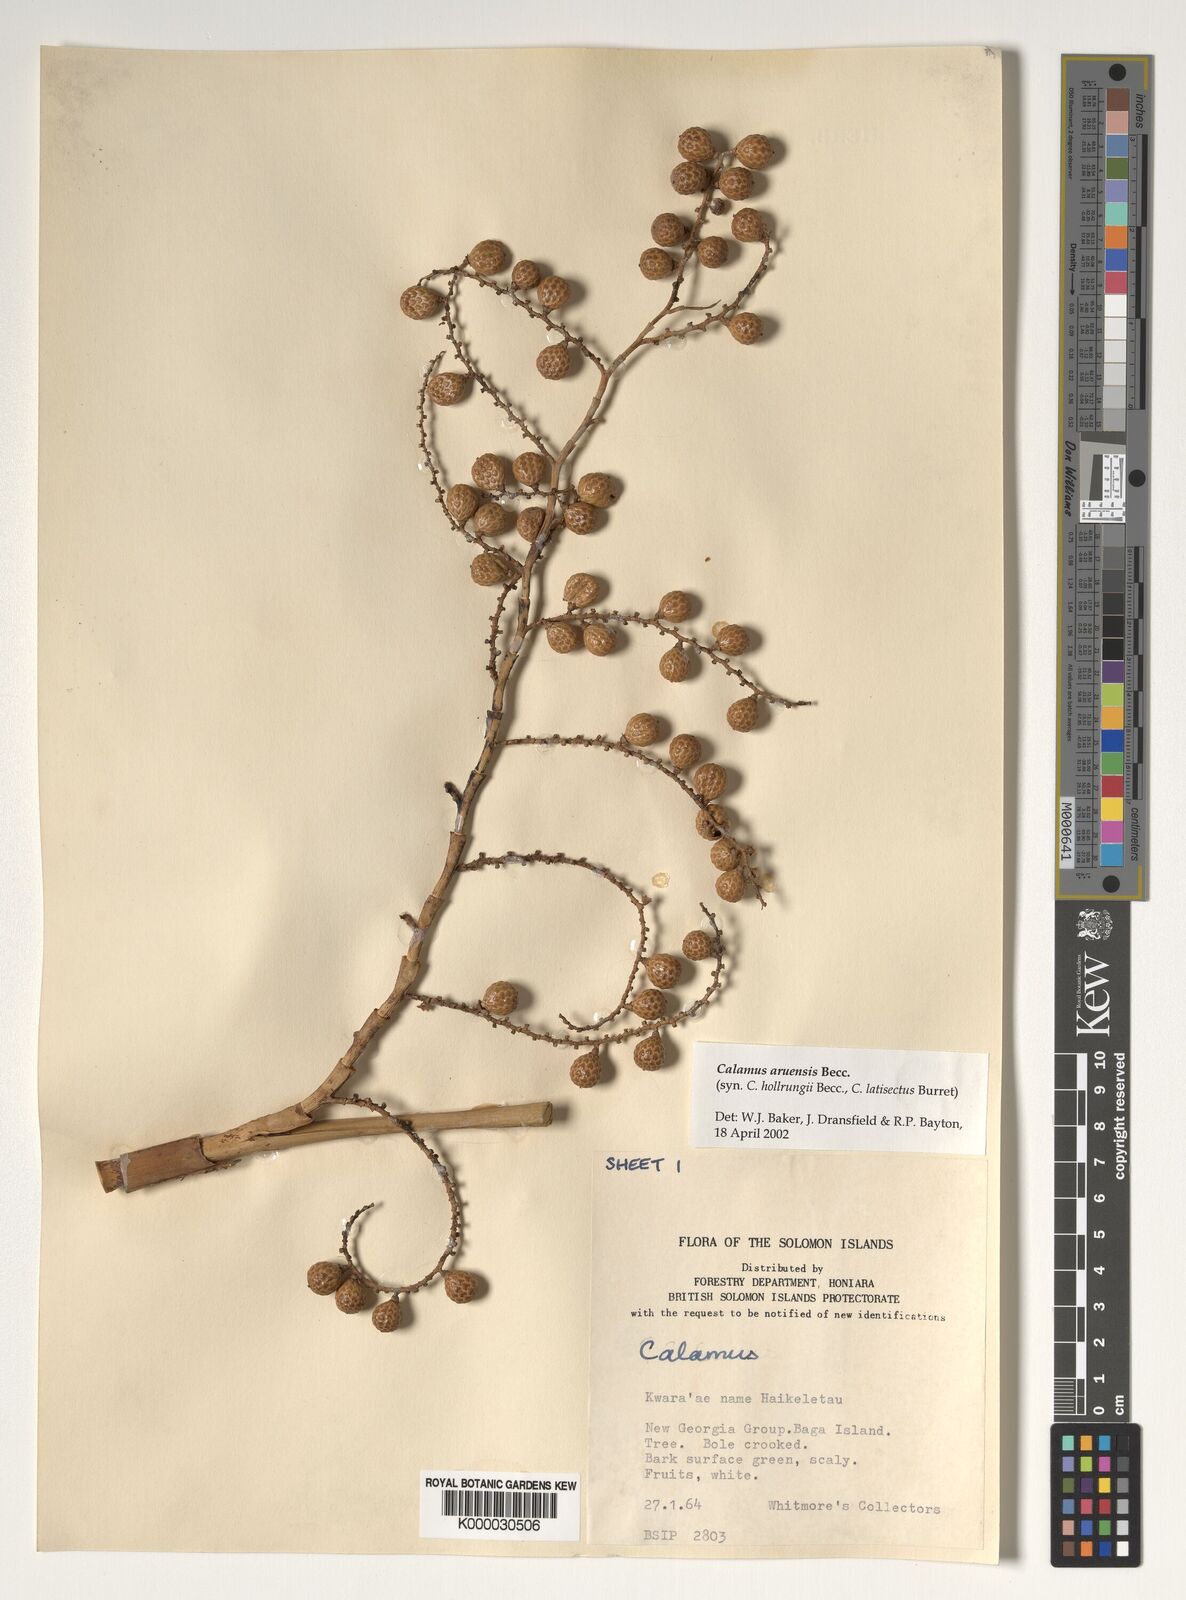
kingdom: Plantae
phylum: Tracheophyta
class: Liliopsida
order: Arecales
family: Arecaceae
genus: Calamus
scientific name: Calamus aruensis
